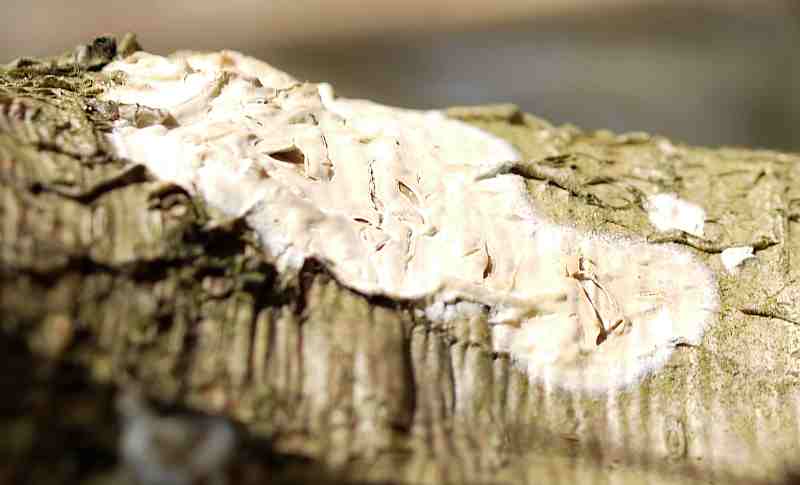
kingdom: Fungi
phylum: Basidiomycota
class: Agaricomycetes
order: Agaricales
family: Physalacriaceae
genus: Cylindrobasidium
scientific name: Cylindrobasidium evolvens
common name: sprækkehinde
